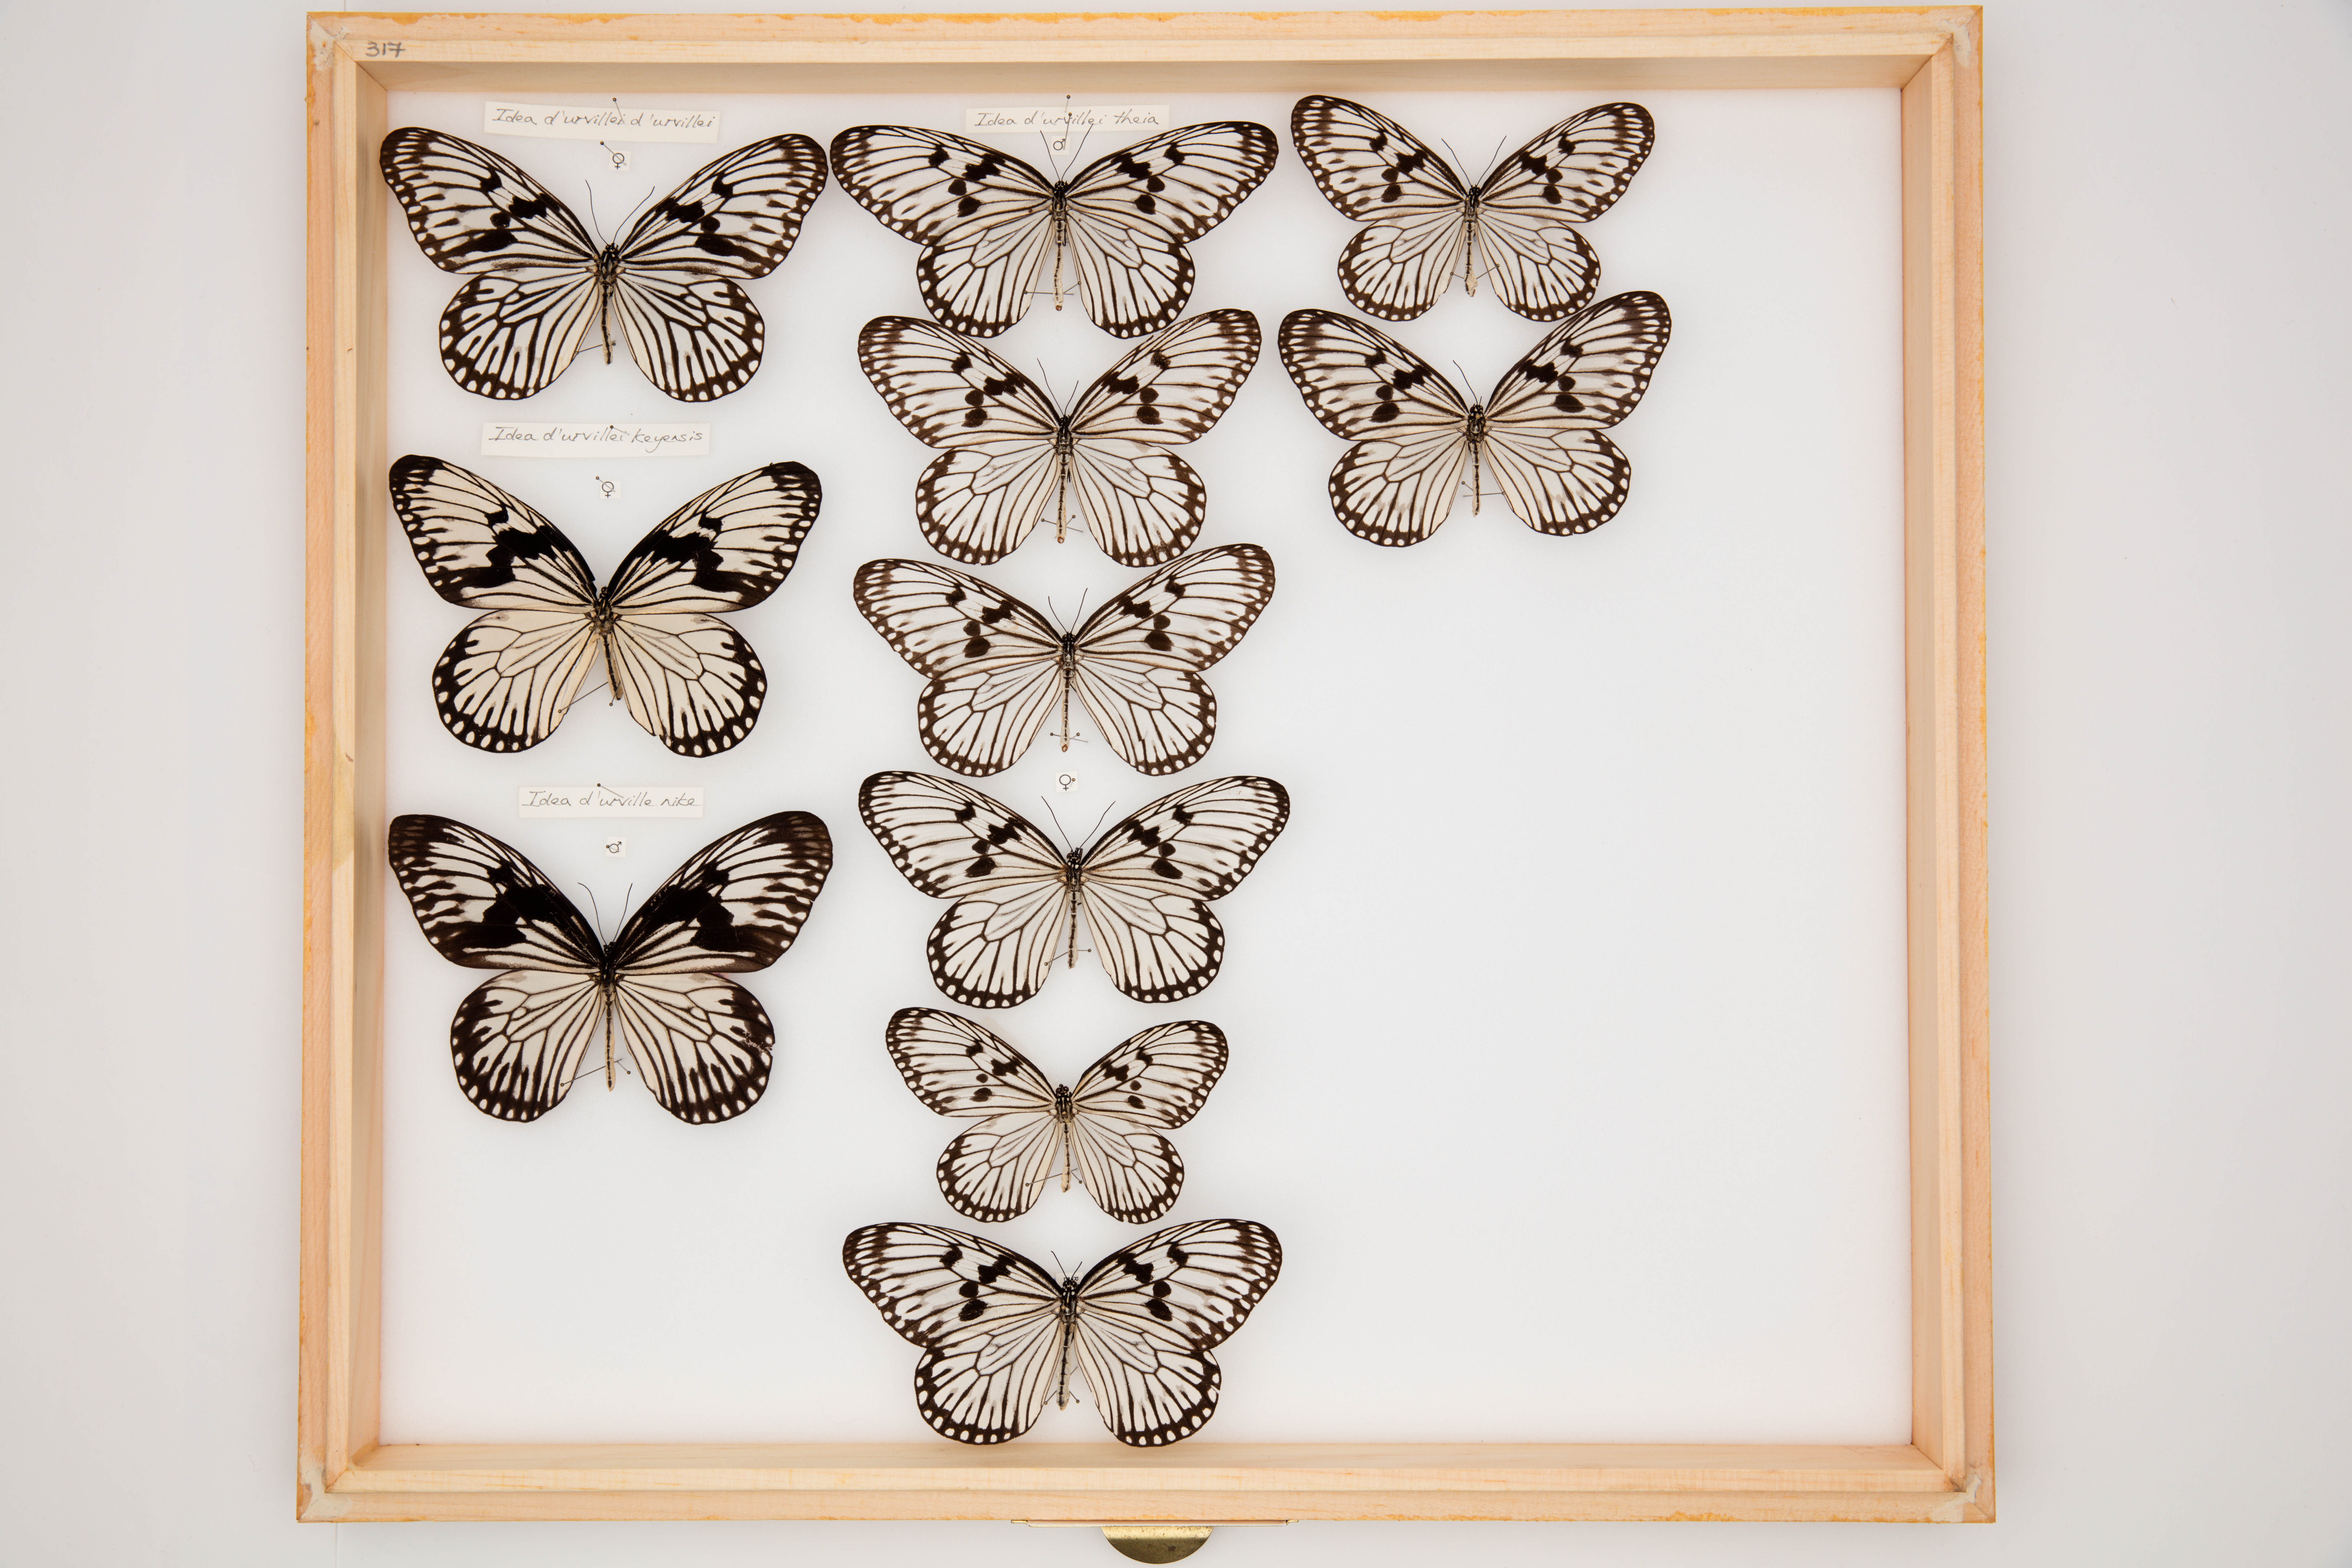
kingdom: Animalia
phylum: Arthropoda
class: Insecta
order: Lepidoptera
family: Nymphalidae
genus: Idea
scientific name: Idea durvillei
